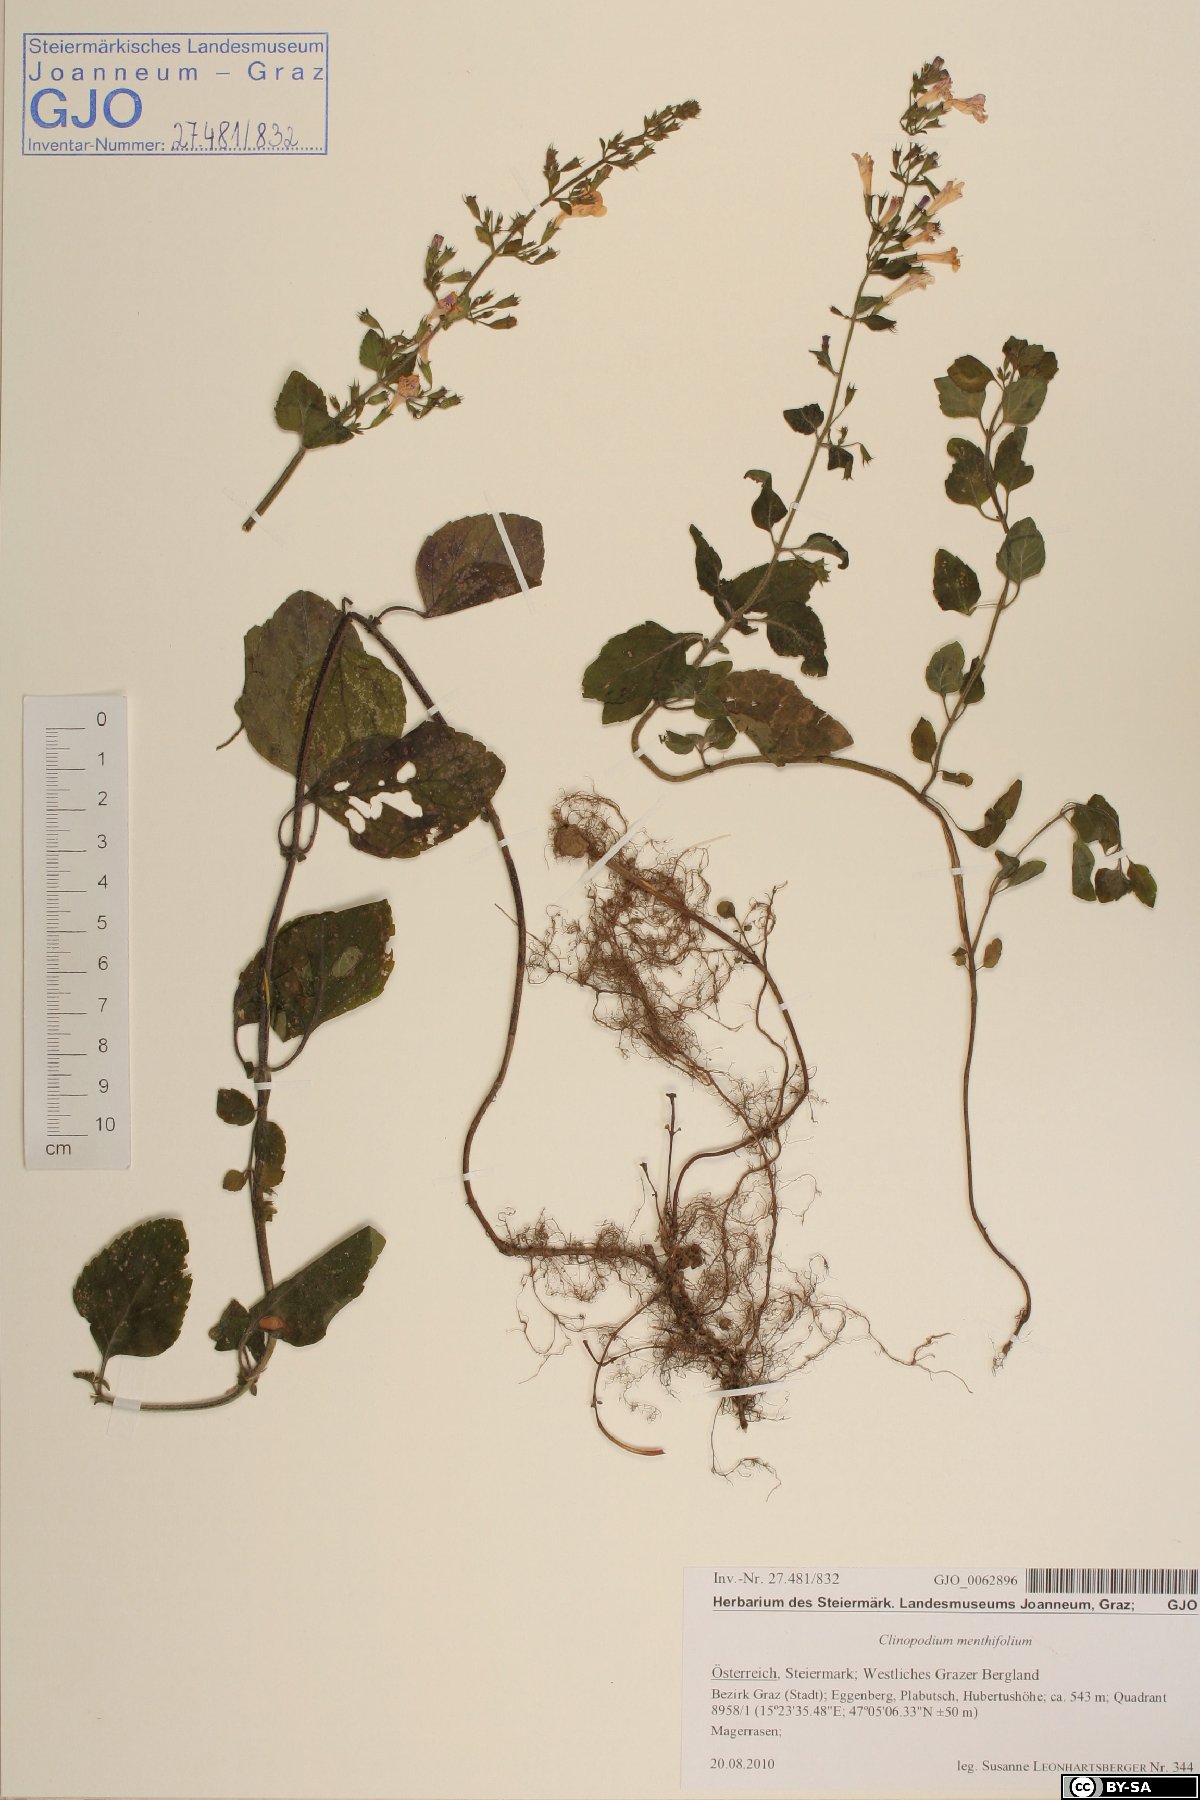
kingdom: Plantae
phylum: Tracheophyta
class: Magnoliopsida
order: Lamiales
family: Lamiaceae
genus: Clinopodium
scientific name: Clinopodium menthifolium
